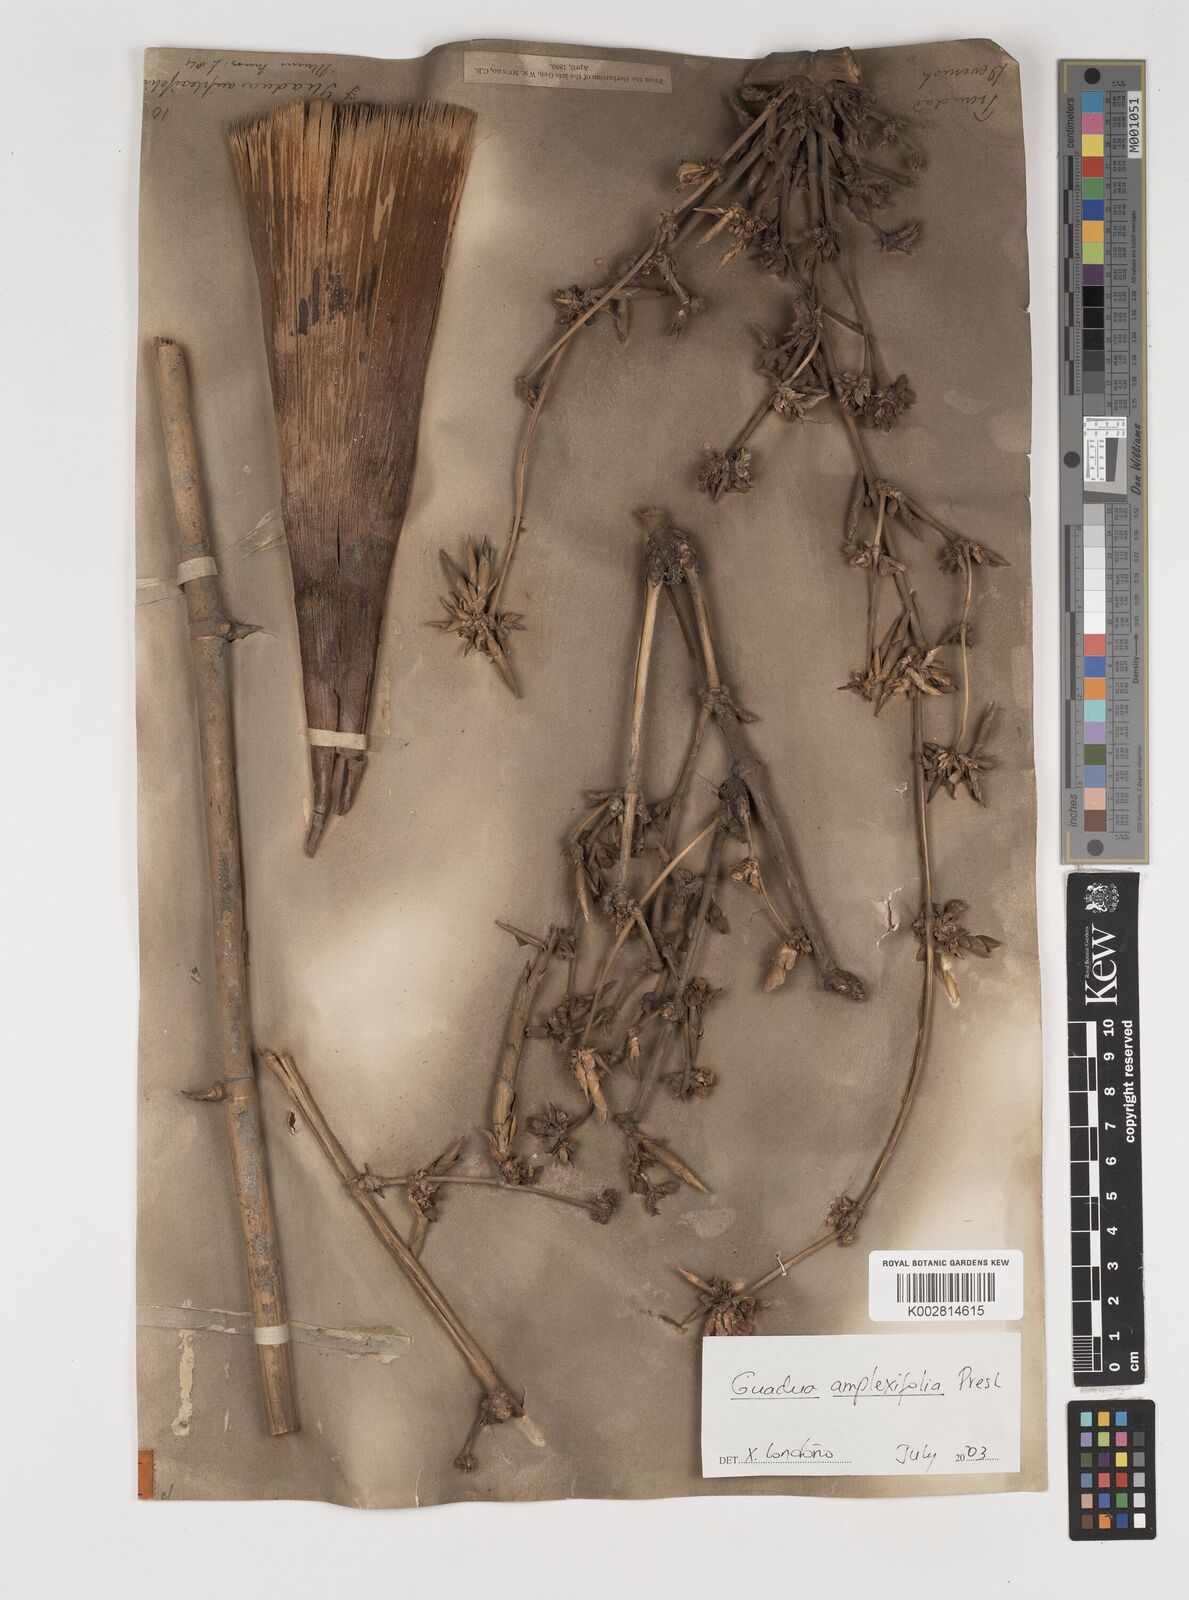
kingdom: Plantae
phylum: Tracheophyta
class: Liliopsida
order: Poales
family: Poaceae
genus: Guadua
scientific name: Guadua amplexifolia
